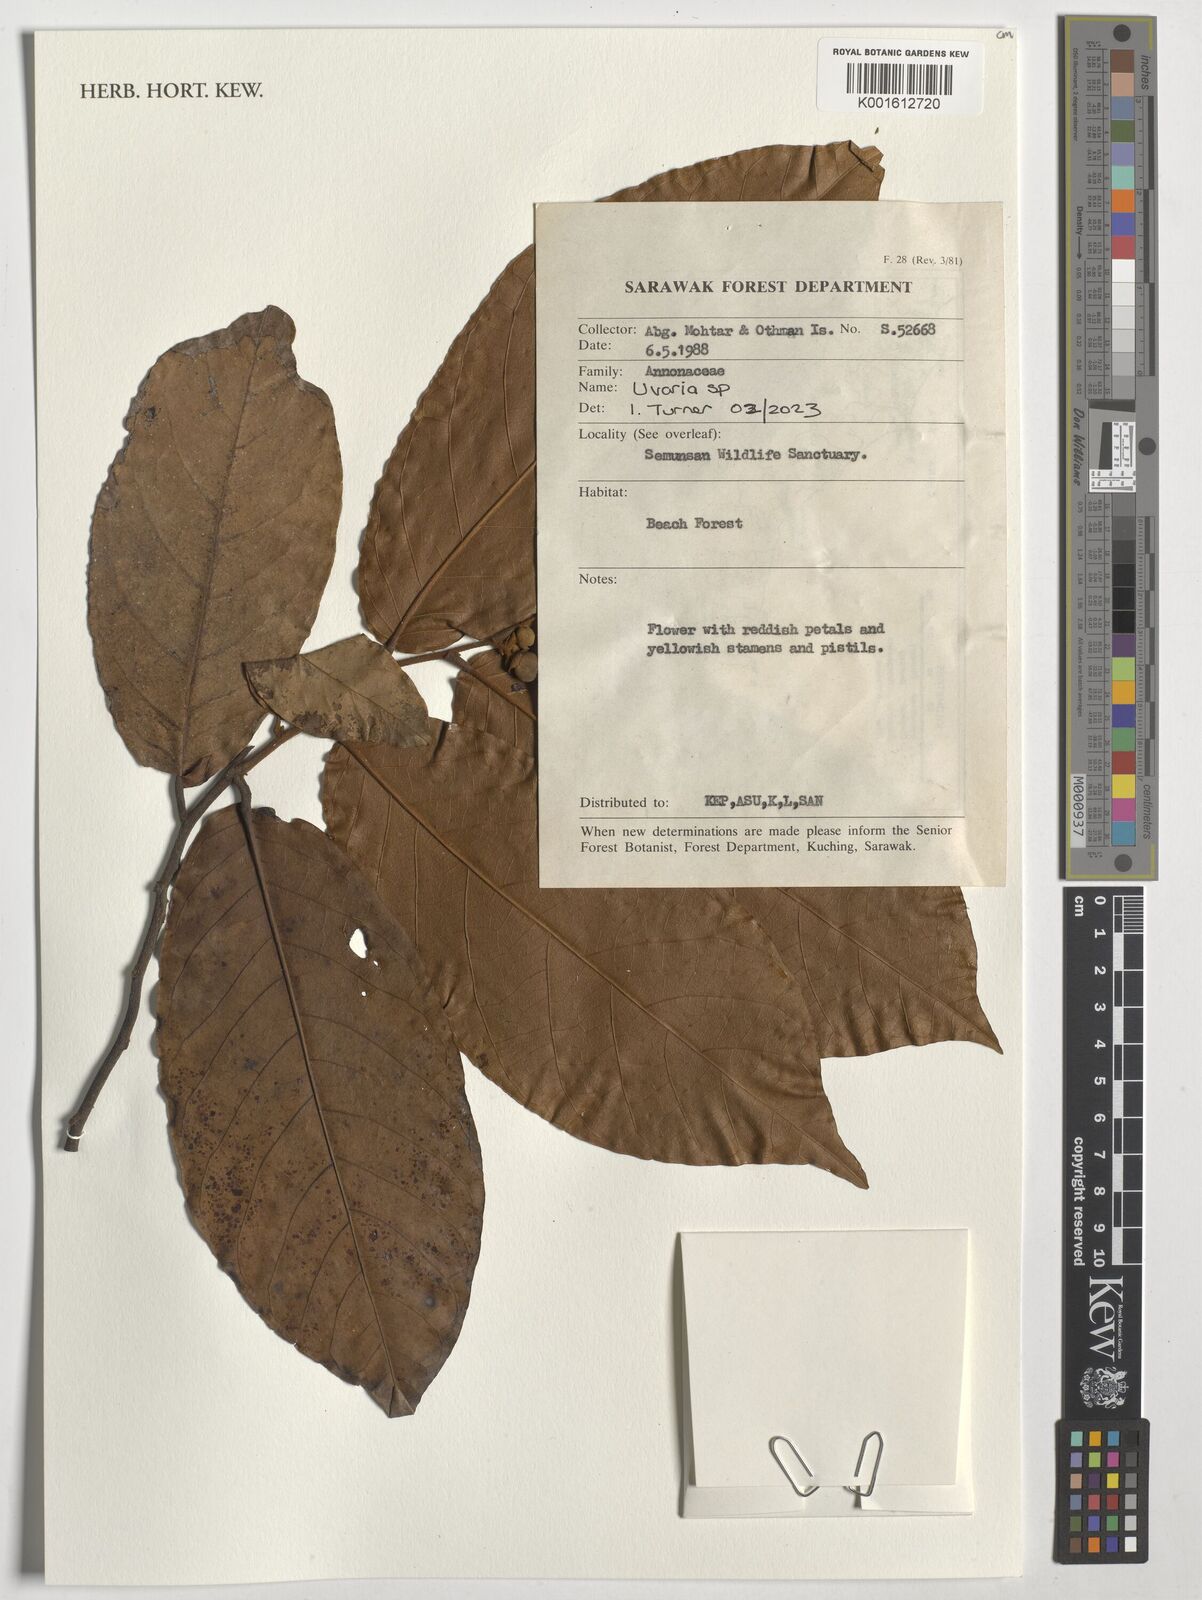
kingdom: Plantae
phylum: Tracheophyta
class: Magnoliopsida
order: Magnoliales
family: Annonaceae
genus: Uvaria
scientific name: Uvaria
